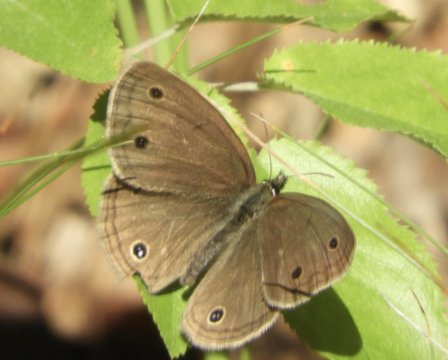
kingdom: Animalia
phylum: Arthropoda
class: Insecta
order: Lepidoptera
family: Nymphalidae
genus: Euptychia
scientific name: Euptychia cymela
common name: Little Wood Satyr
